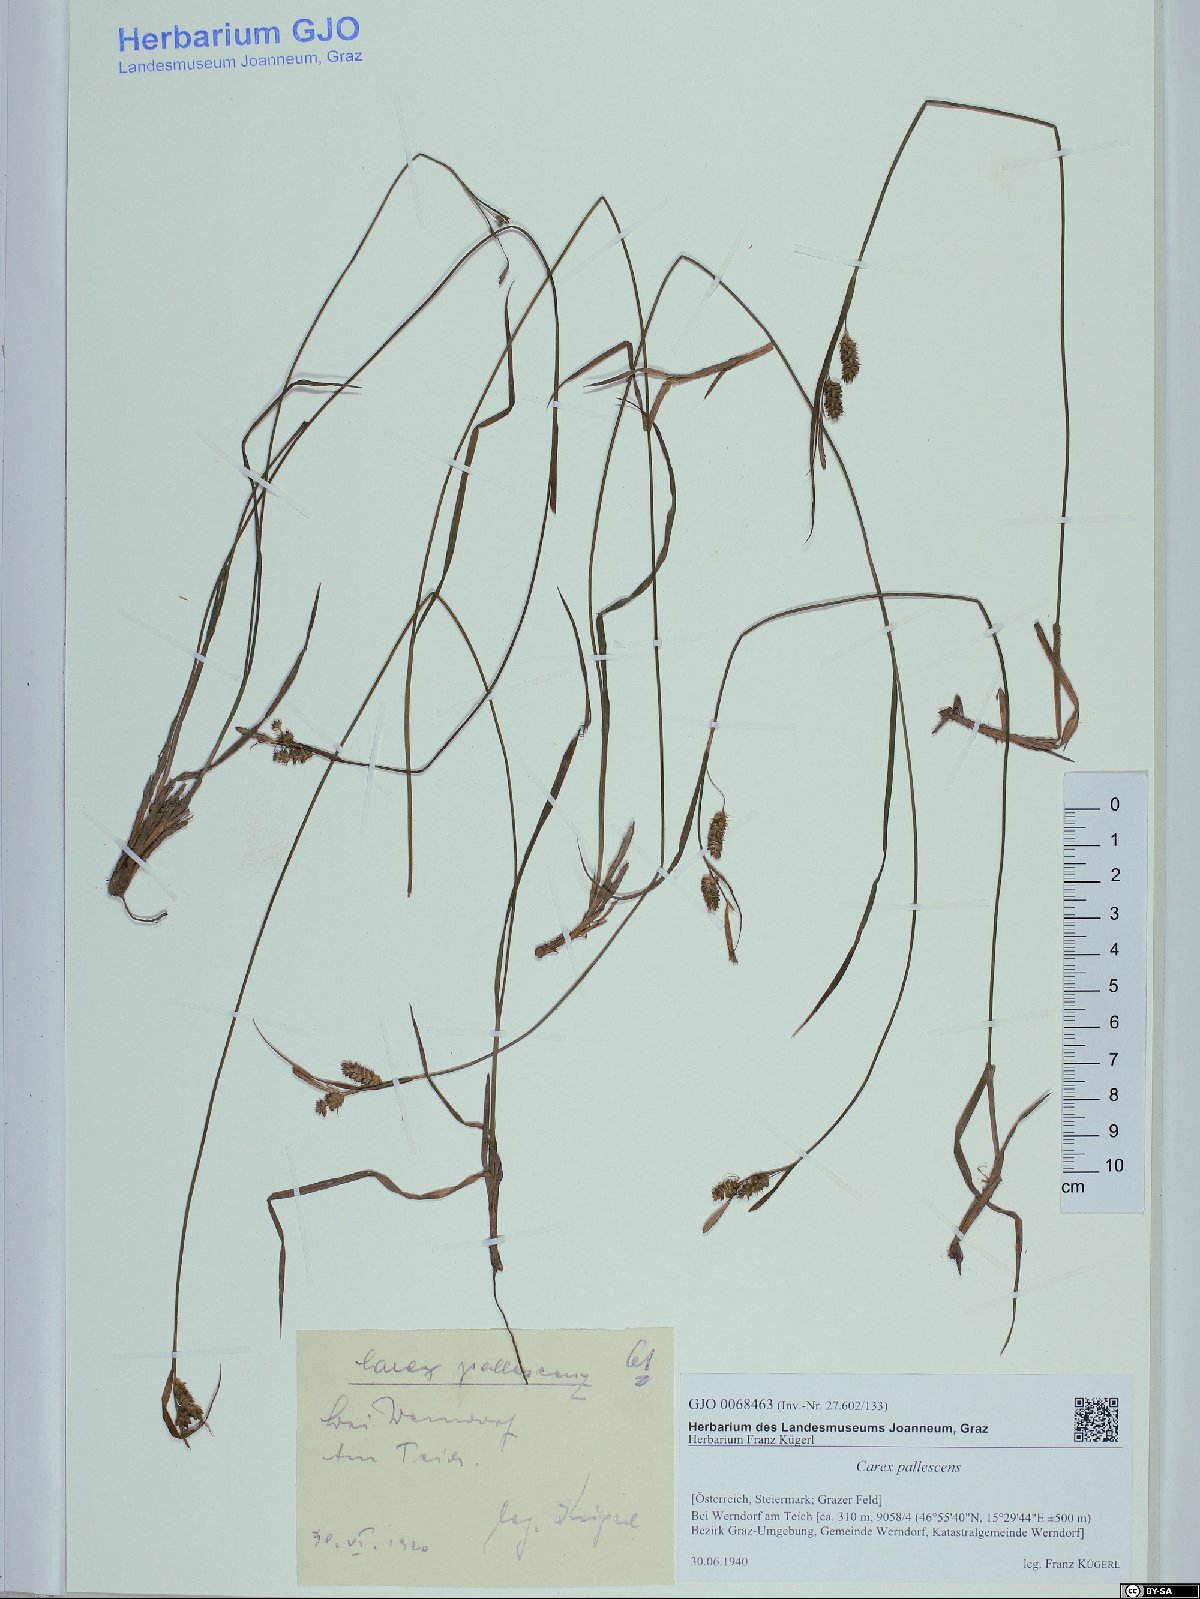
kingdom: Plantae
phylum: Tracheophyta
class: Liliopsida
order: Poales
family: Cyperaceae
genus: Carex
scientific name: Carex pallescens
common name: Pale sedge
